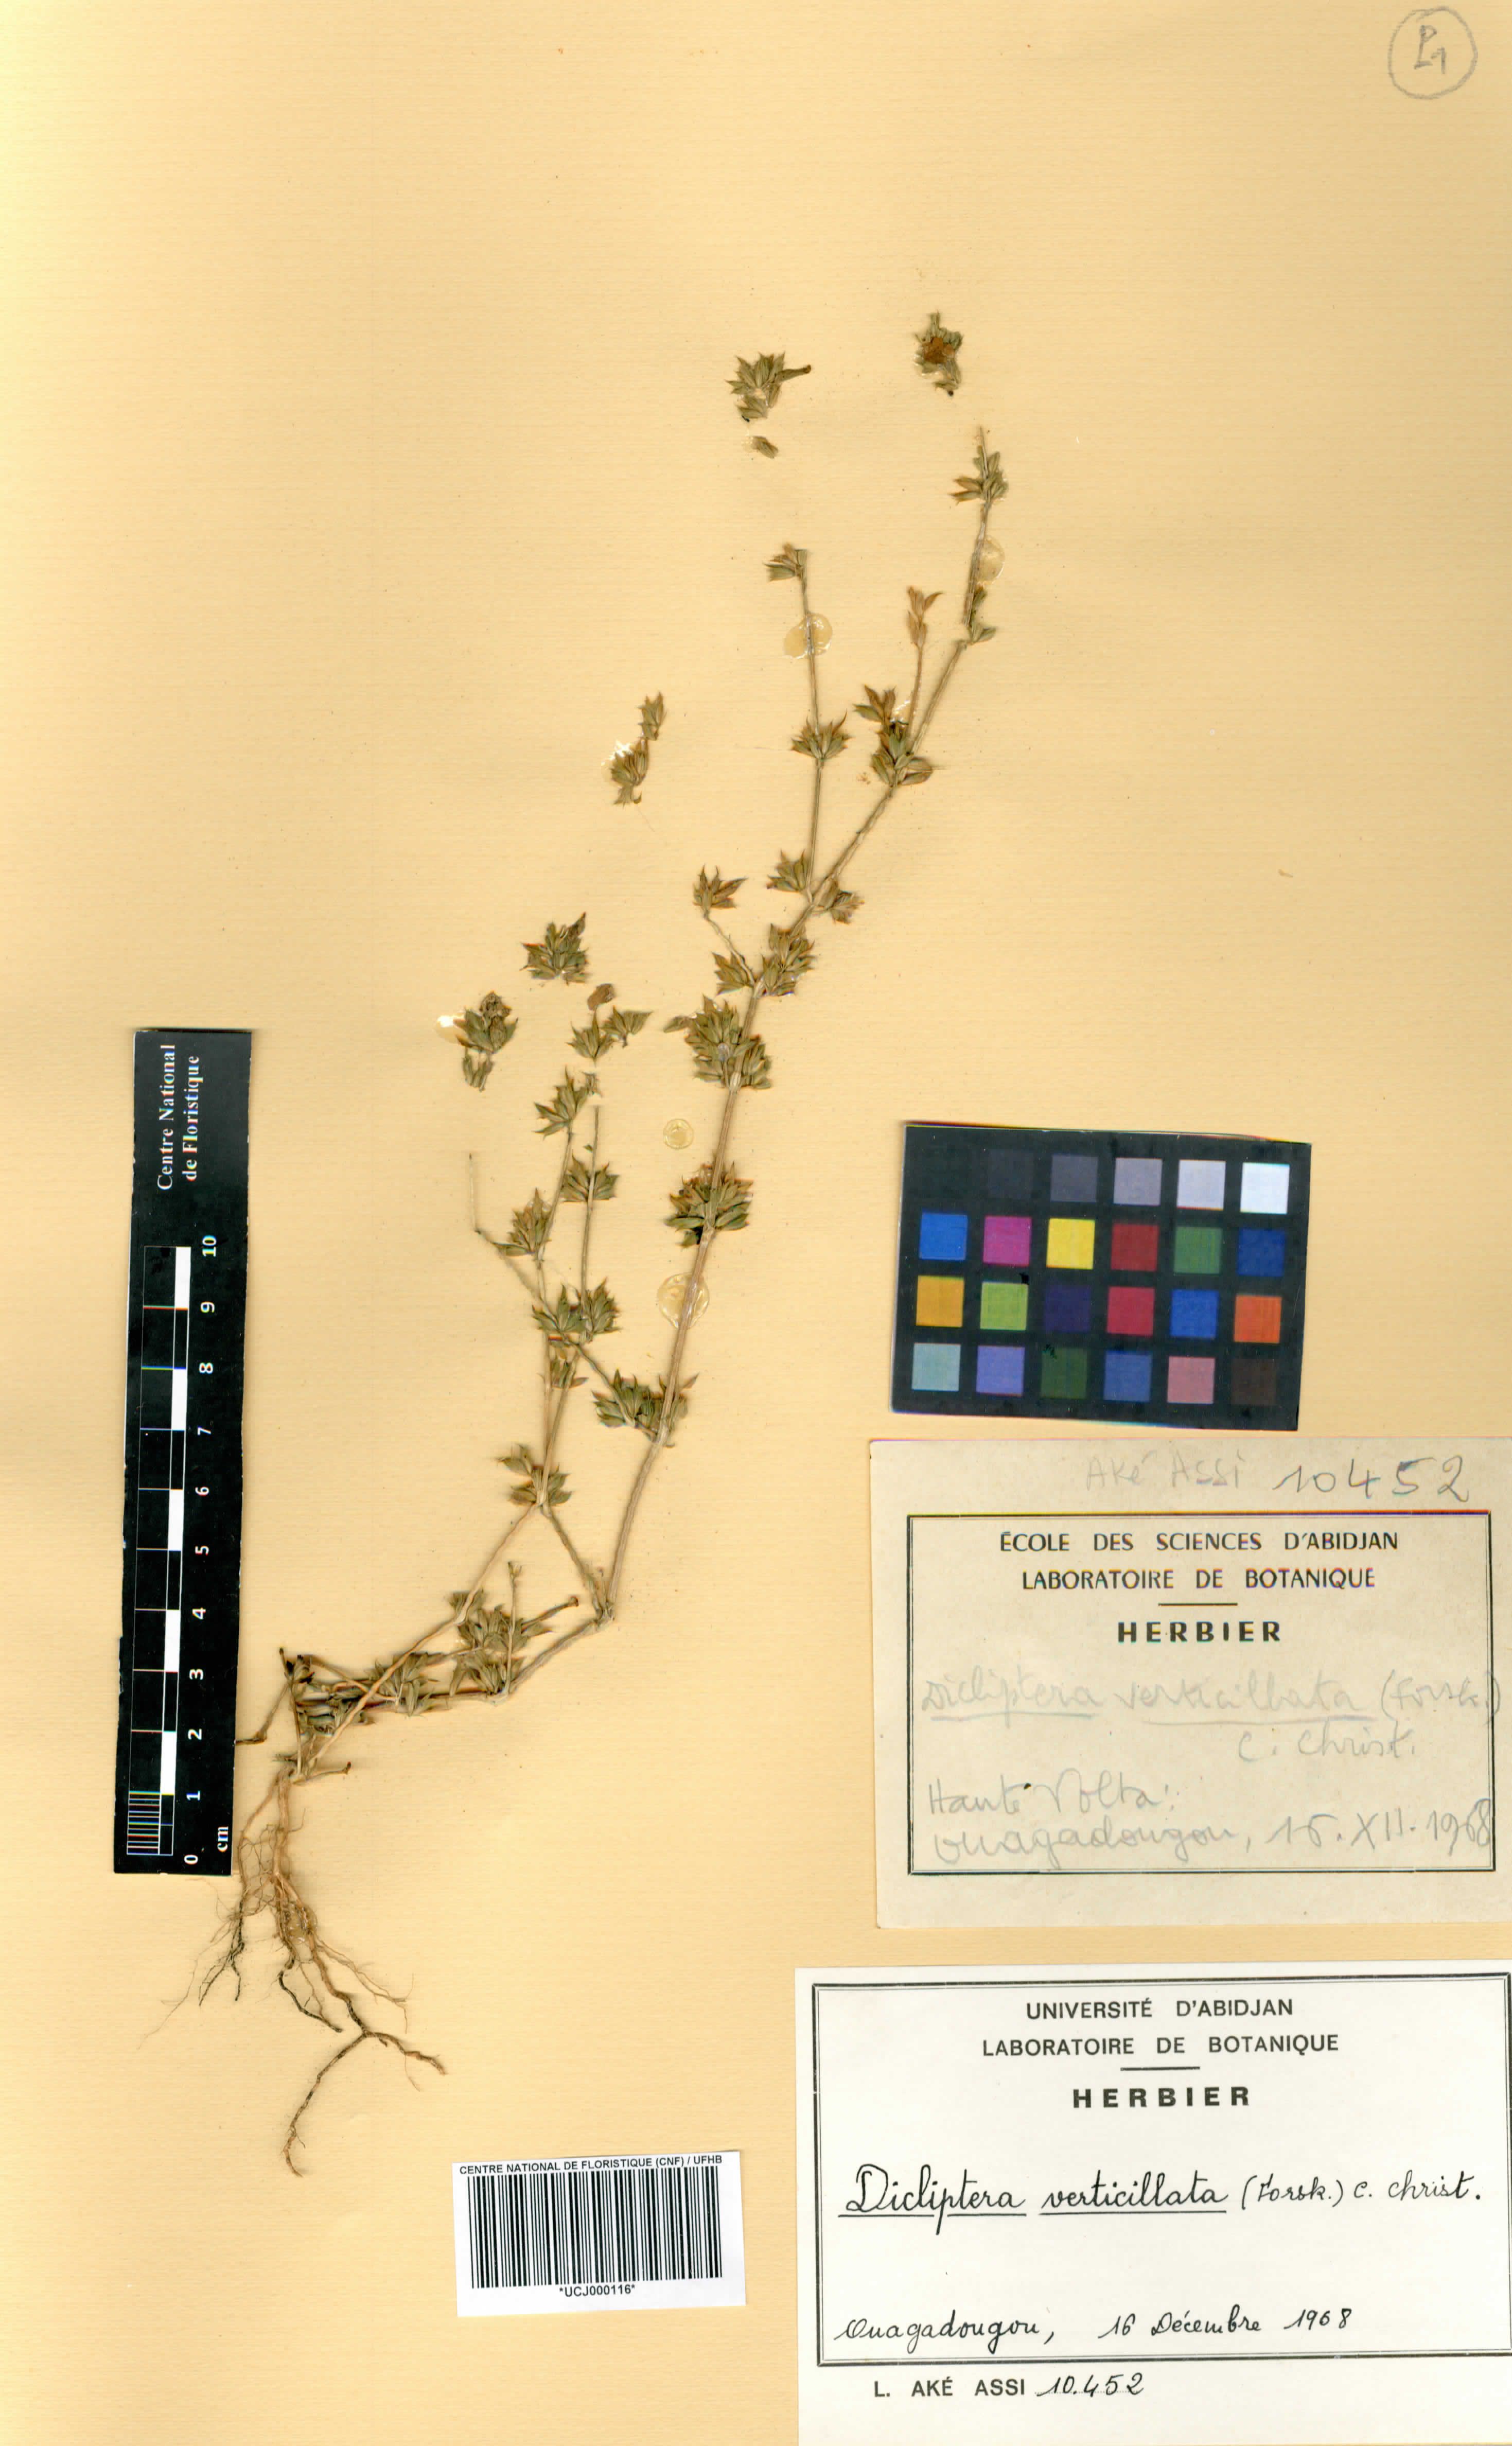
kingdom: Plantae
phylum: Tracheophyta
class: Magnoliopsida
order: Lamiales
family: Acanthaceae
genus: Dicliptera
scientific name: Dicliptera verticillata
